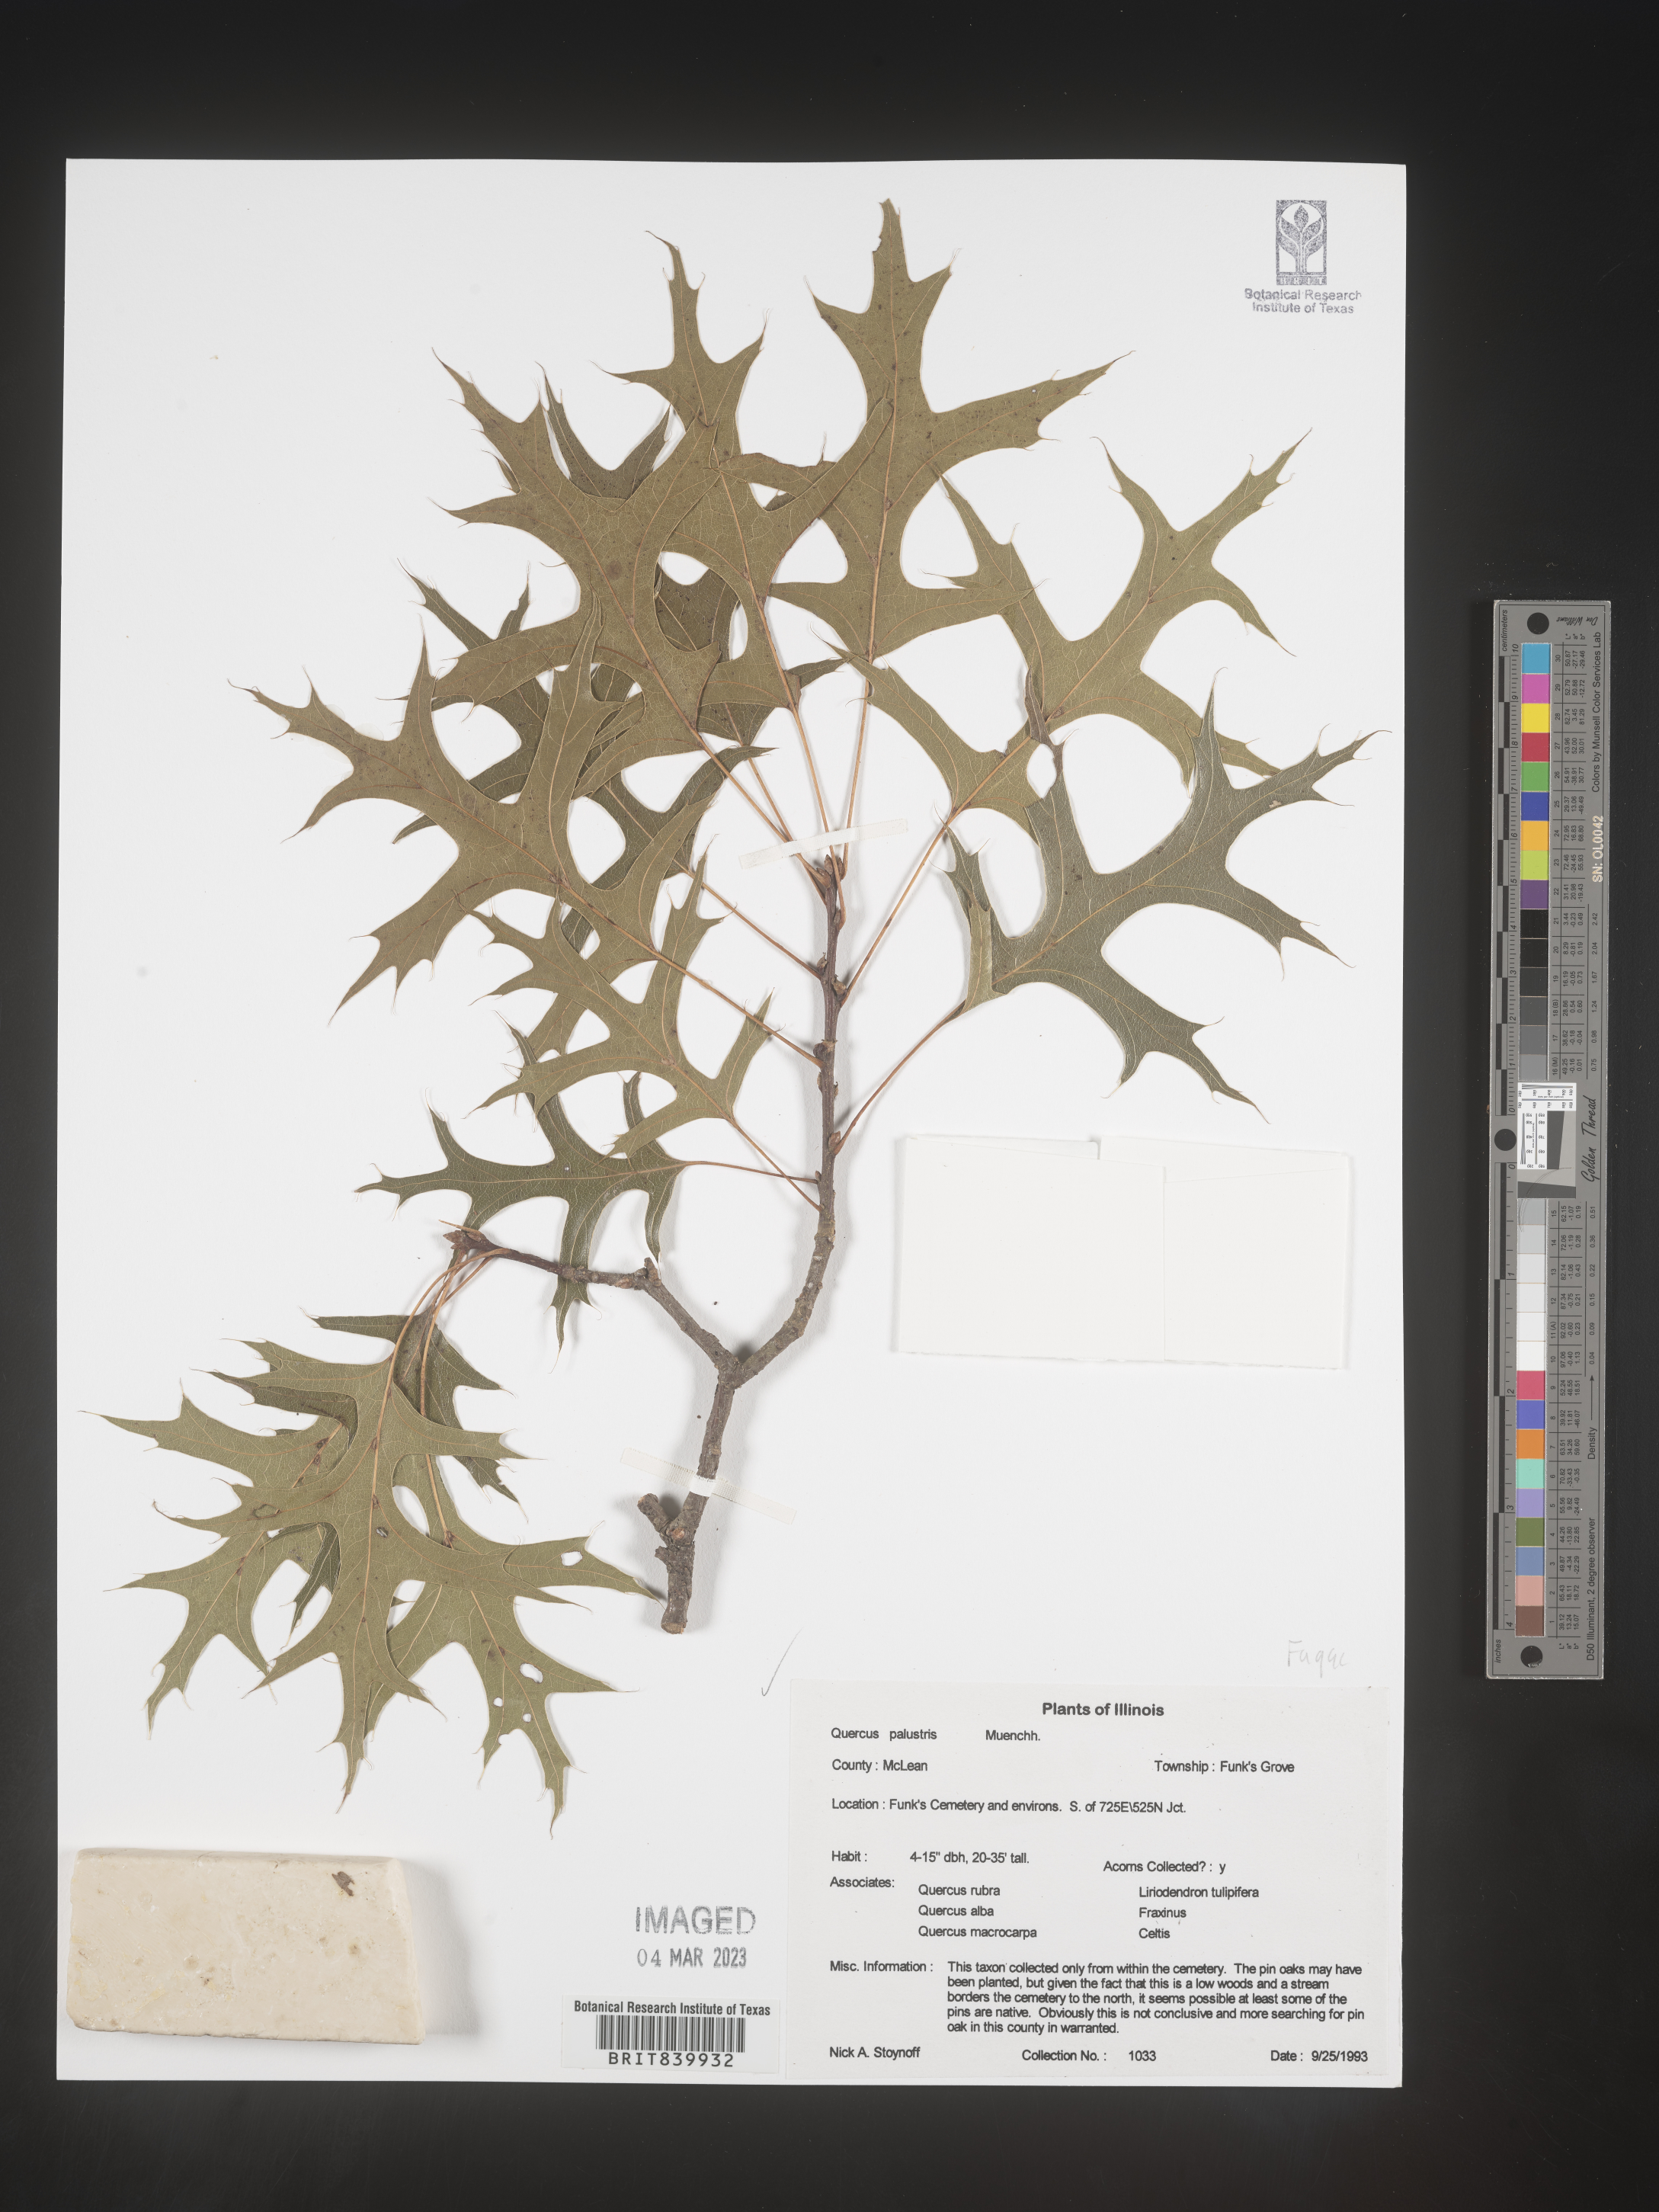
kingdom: Plantae
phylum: Tracheophyta
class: Magnoliopsida
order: Fagales
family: Fagaceae
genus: Quercus
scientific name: Quercus palustris
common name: Pin oak
